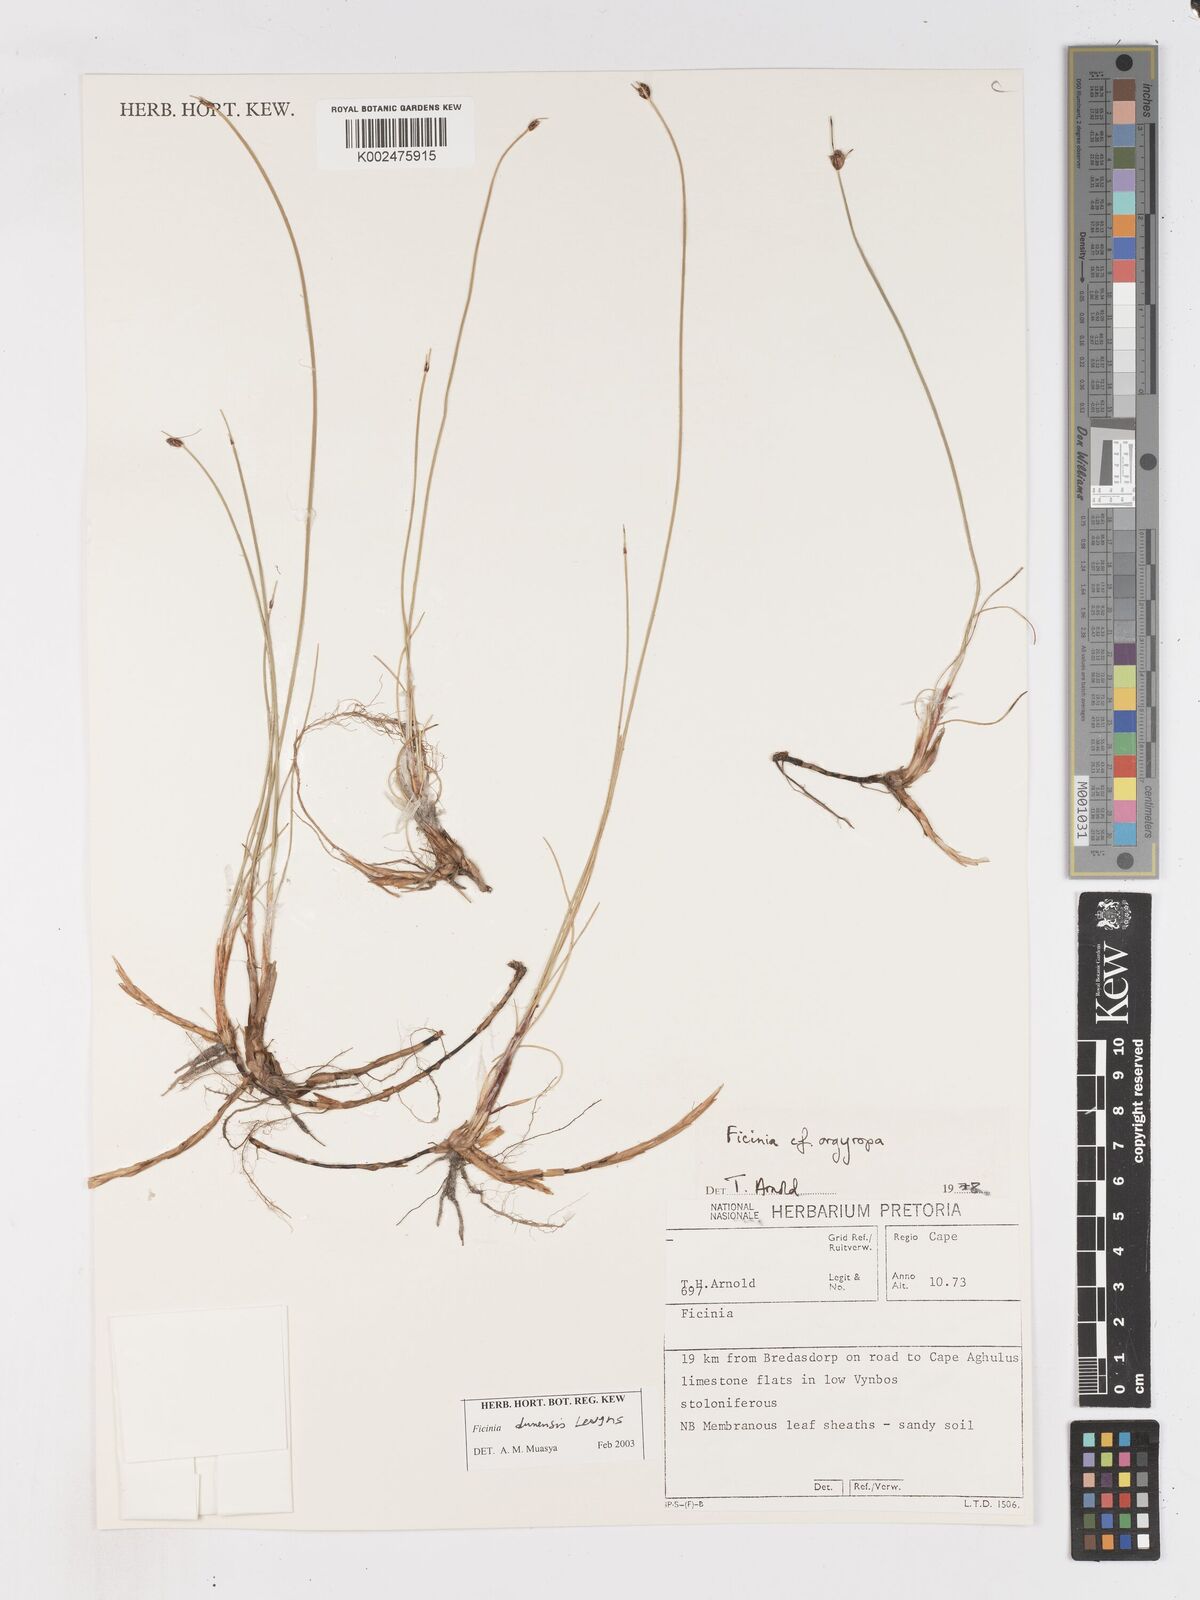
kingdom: Plantae
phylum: Tracheophyta
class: Liliopsida
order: Poales
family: Cyperaceae
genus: Ficinia
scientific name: Ficinia dunensis
